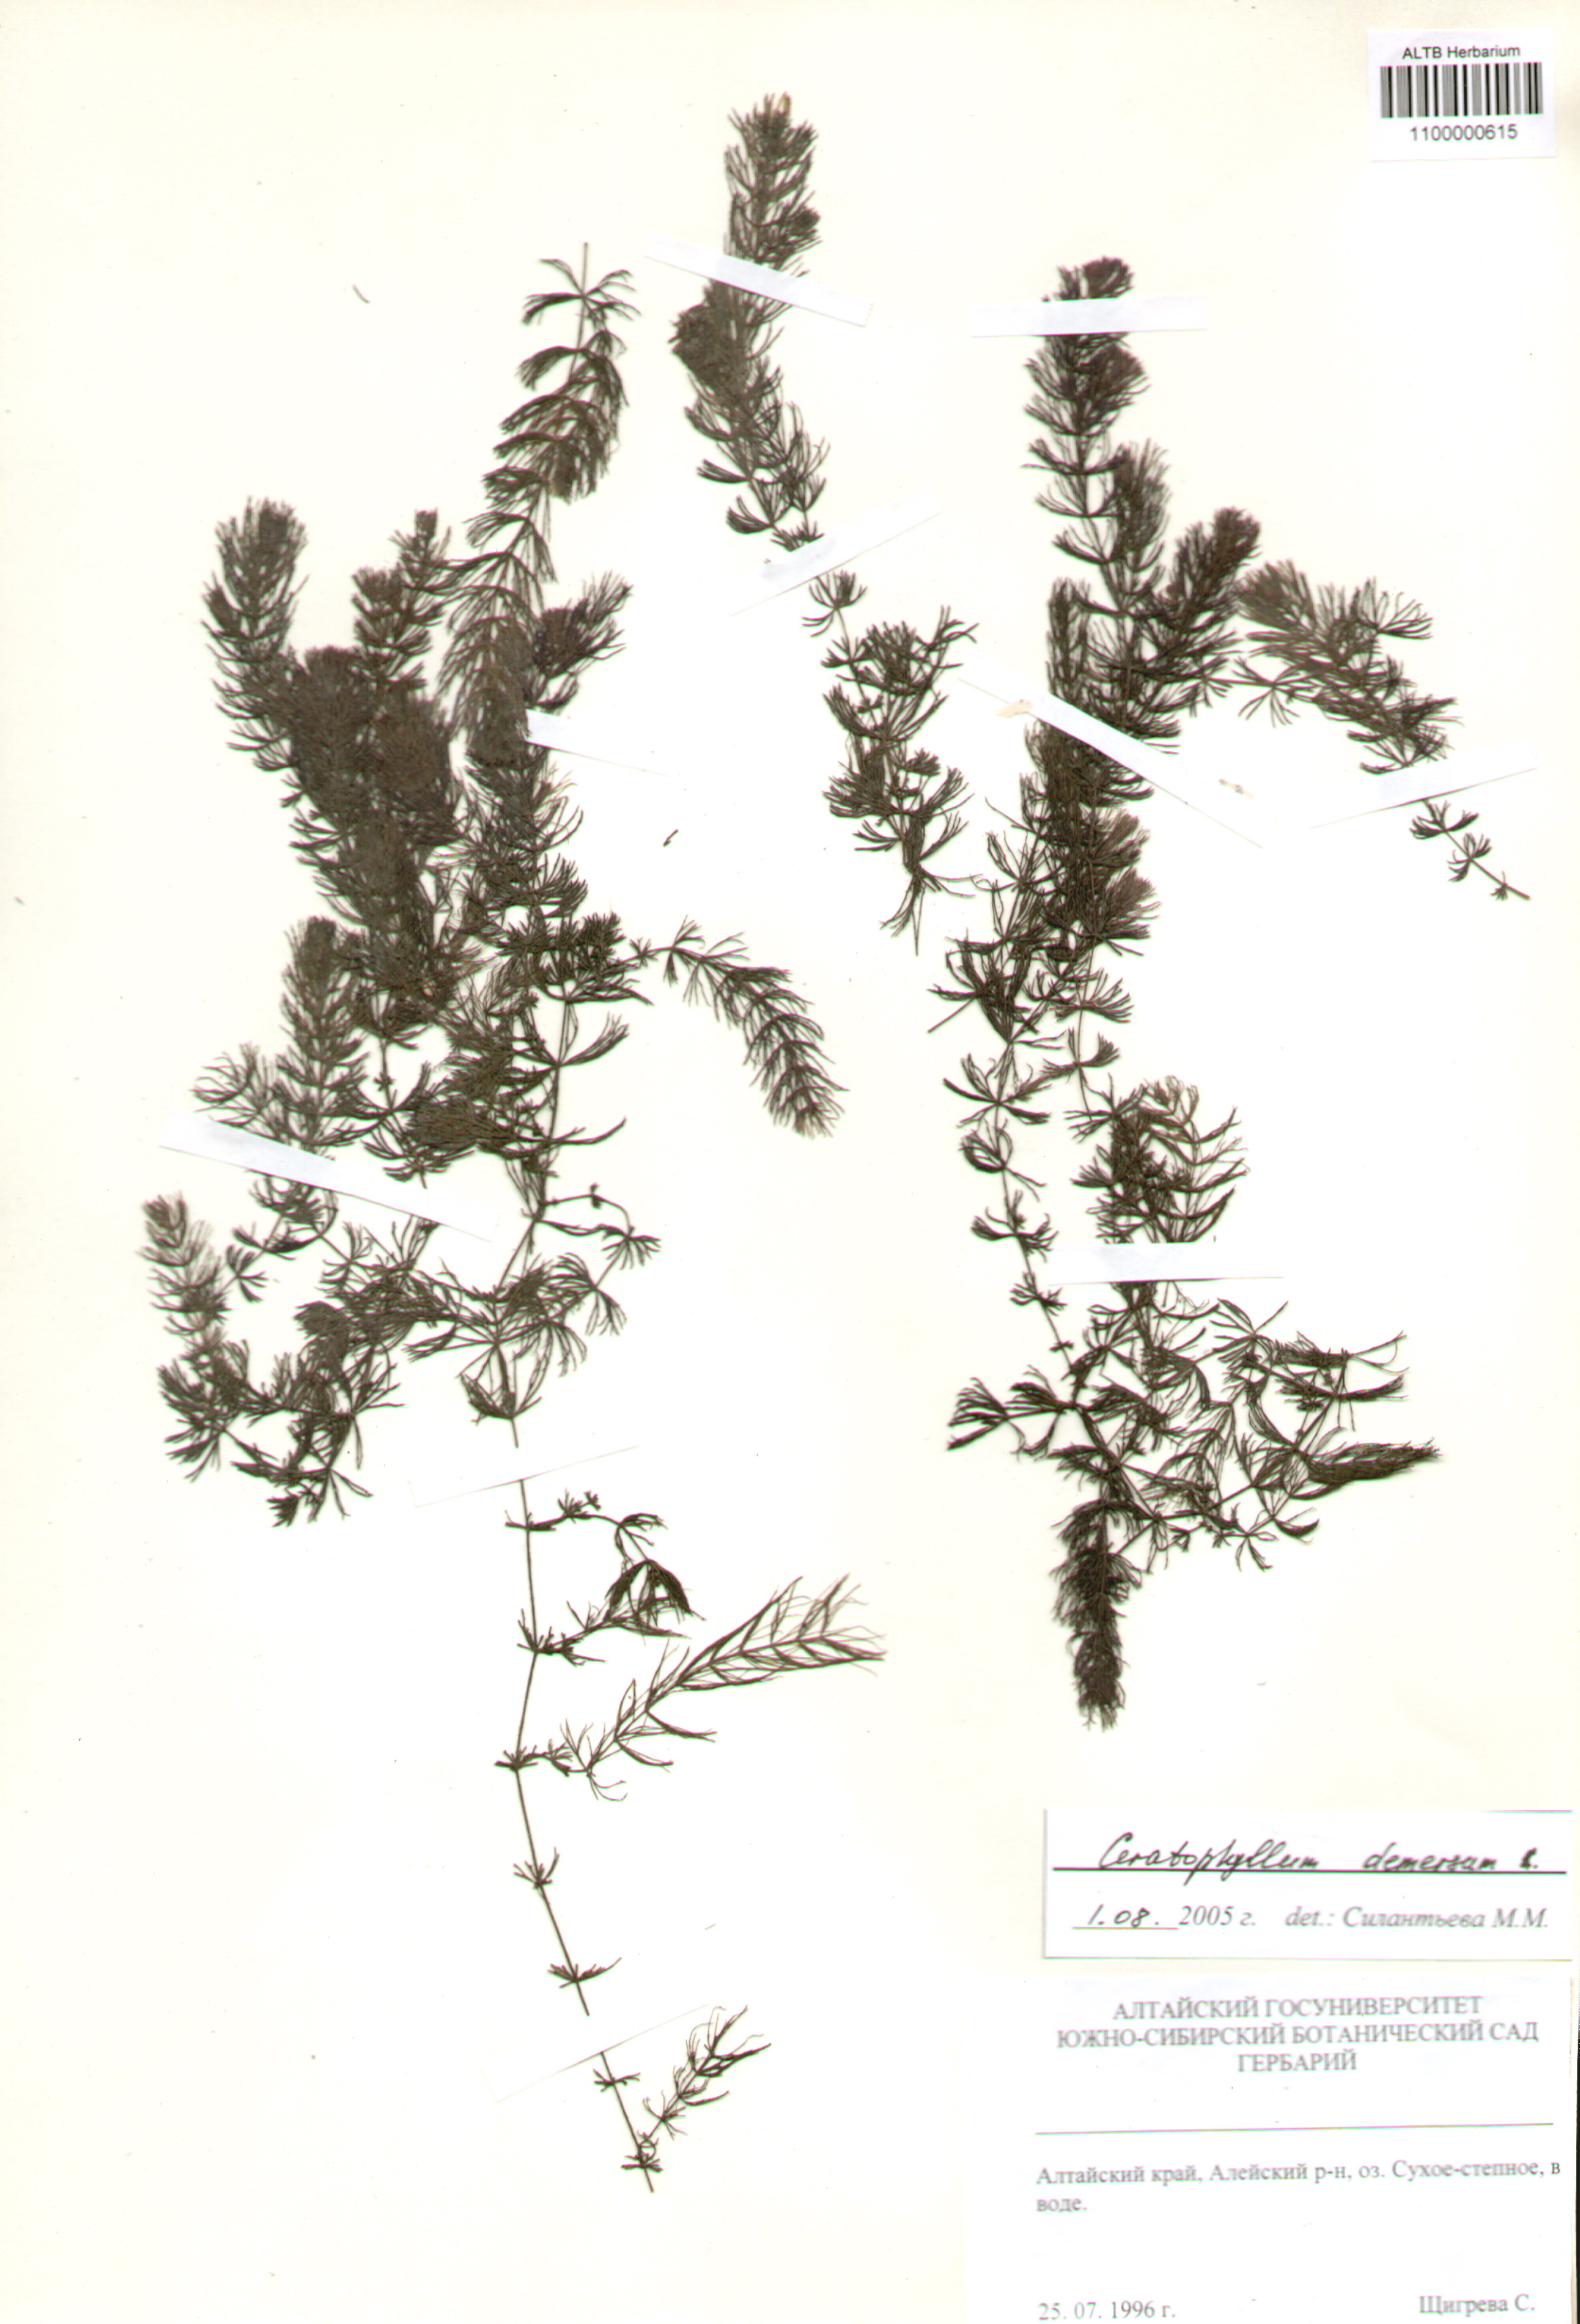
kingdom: Plantae
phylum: Tracheophyta
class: Magnoliopsida
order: Ceratophyllales
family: Ceratophyllaceae
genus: Ceratophyllum
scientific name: Ceratophyllum demersum
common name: Rigid hornwort
